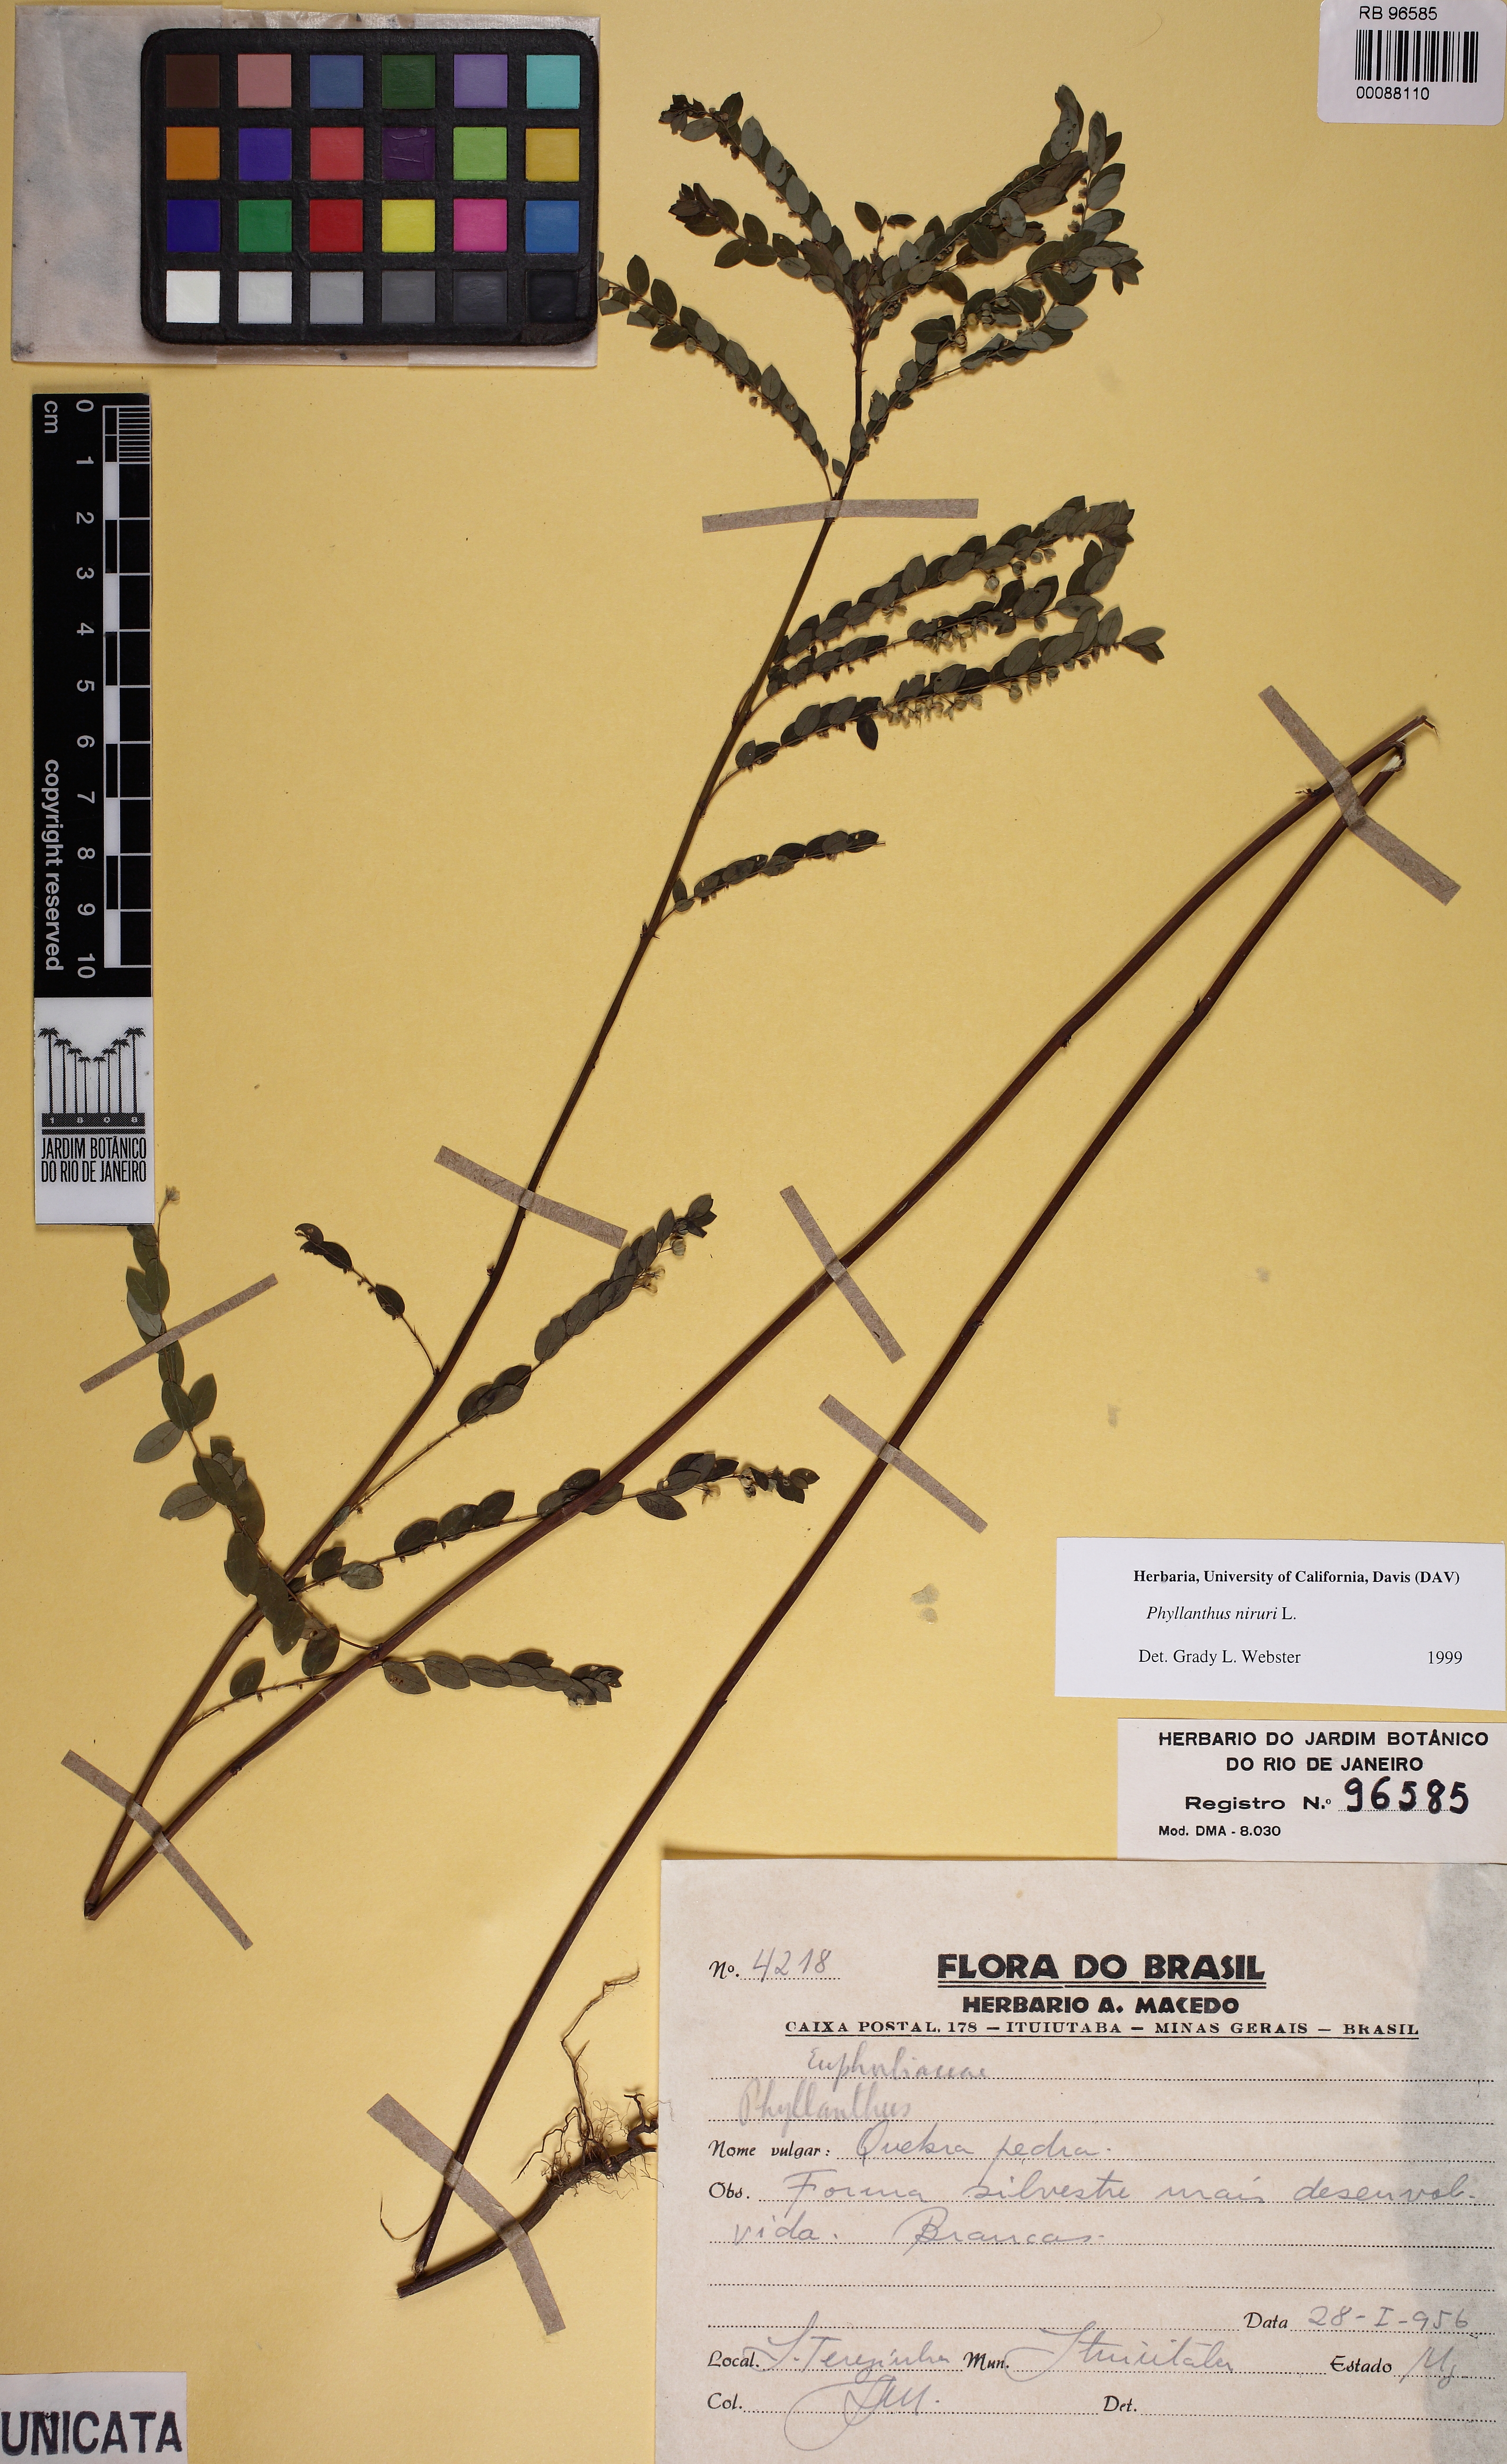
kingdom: Plantae
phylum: Tracheophyta
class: Magnoliopsida
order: Malpighiales
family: Phyllanthaceae
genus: Phyllanthus
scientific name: Phyllanthus niruri
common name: Niruri
